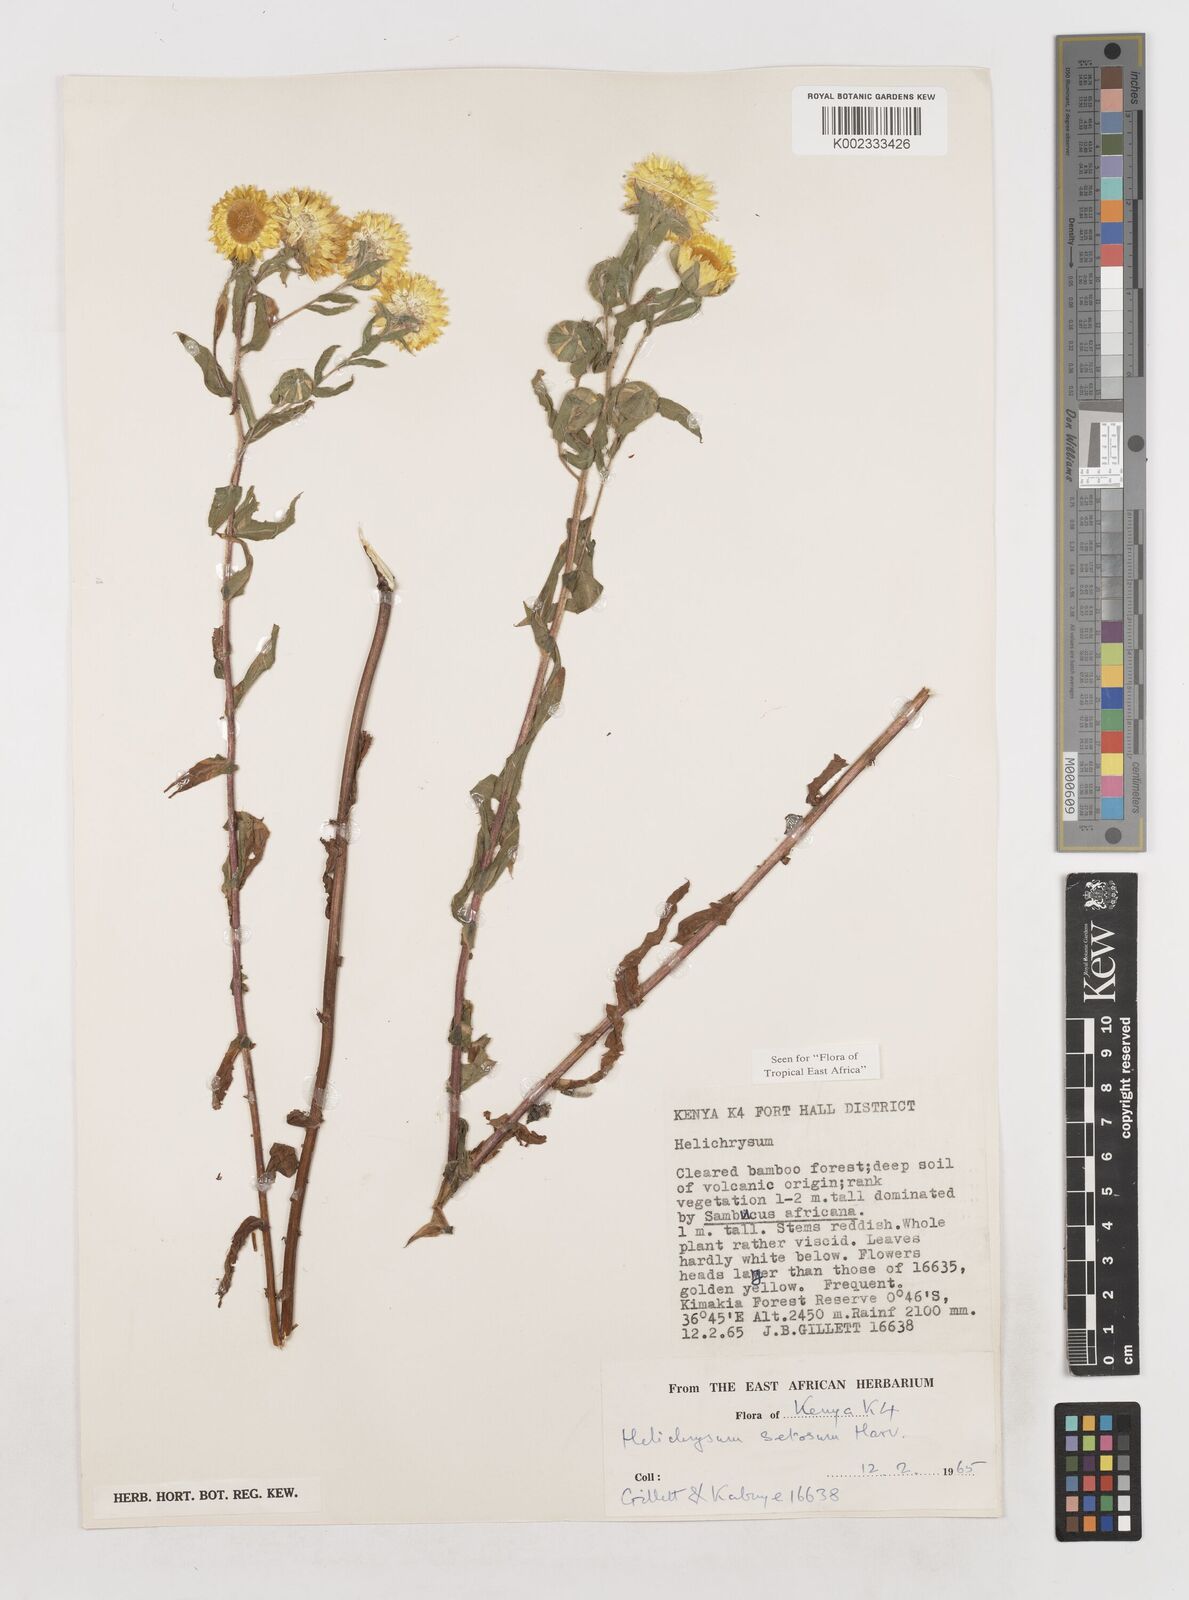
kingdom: Plantae
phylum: Tracheophyta
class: Magnoliopsida
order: Asterales
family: Asteraceae
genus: Helichrysum
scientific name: Helichrysum setosum
